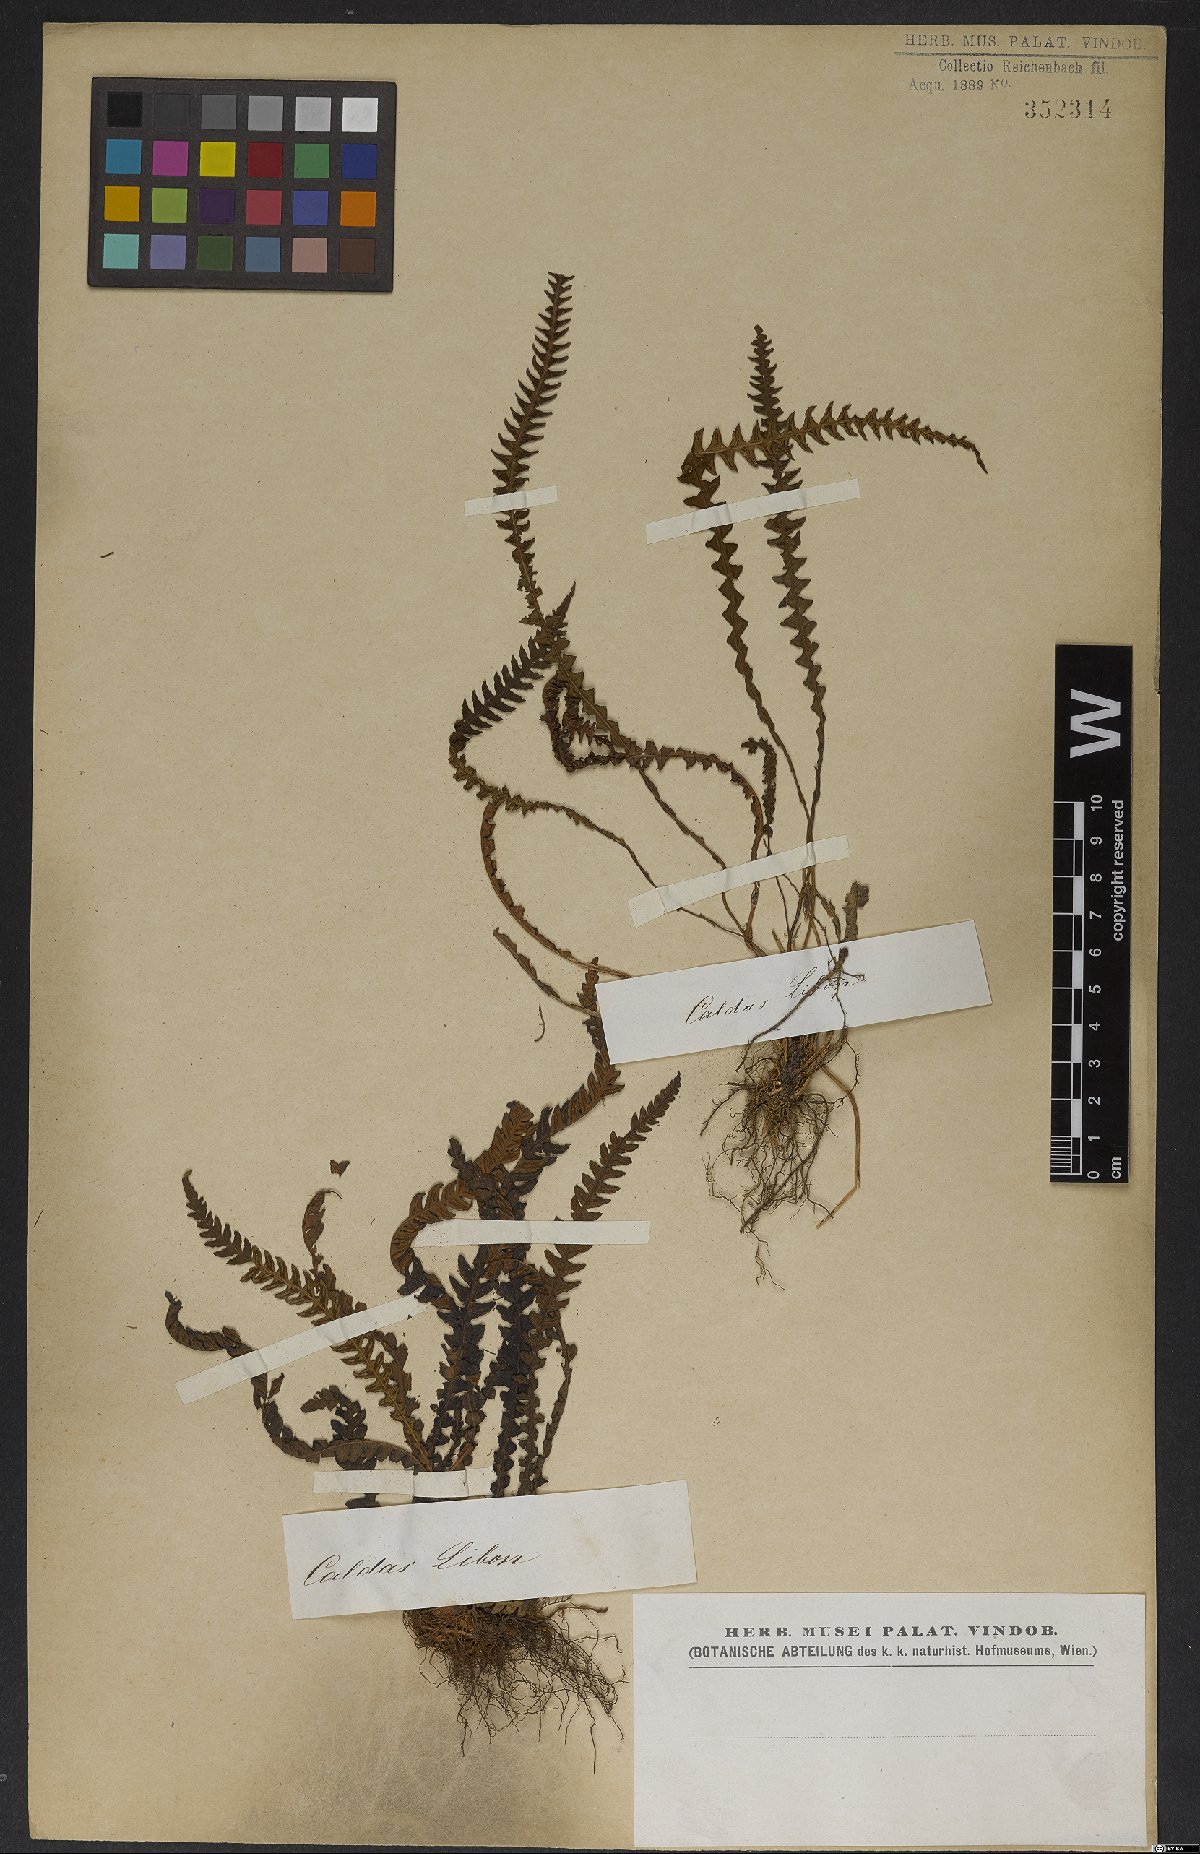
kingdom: Plantae
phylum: Tracheophyta
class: Polypodiopsida
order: Polypodiales
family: Blechnaceae
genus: Blechnum
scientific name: Blechnum
